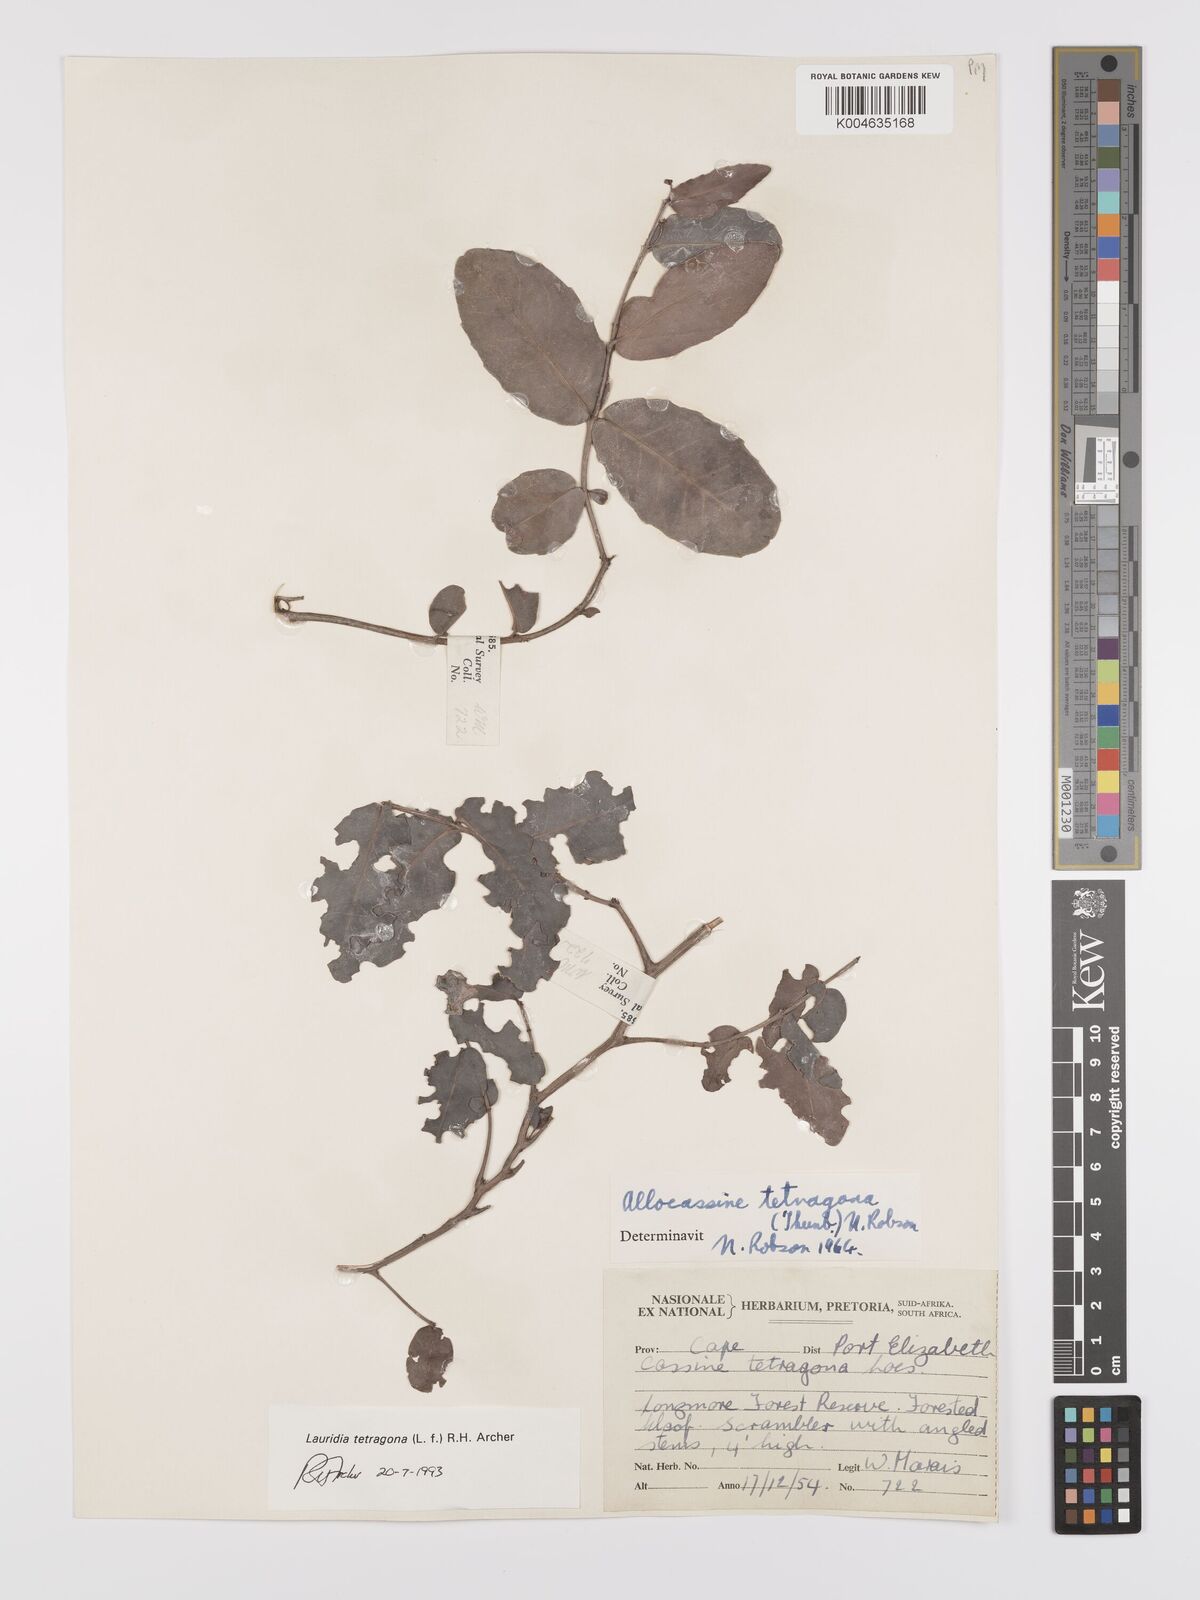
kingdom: Plantae
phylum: Tracheophyta
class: Magnoliopsida
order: Celastrales
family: Celastraceae
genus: Lauridia
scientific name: Lauridia tetragona
